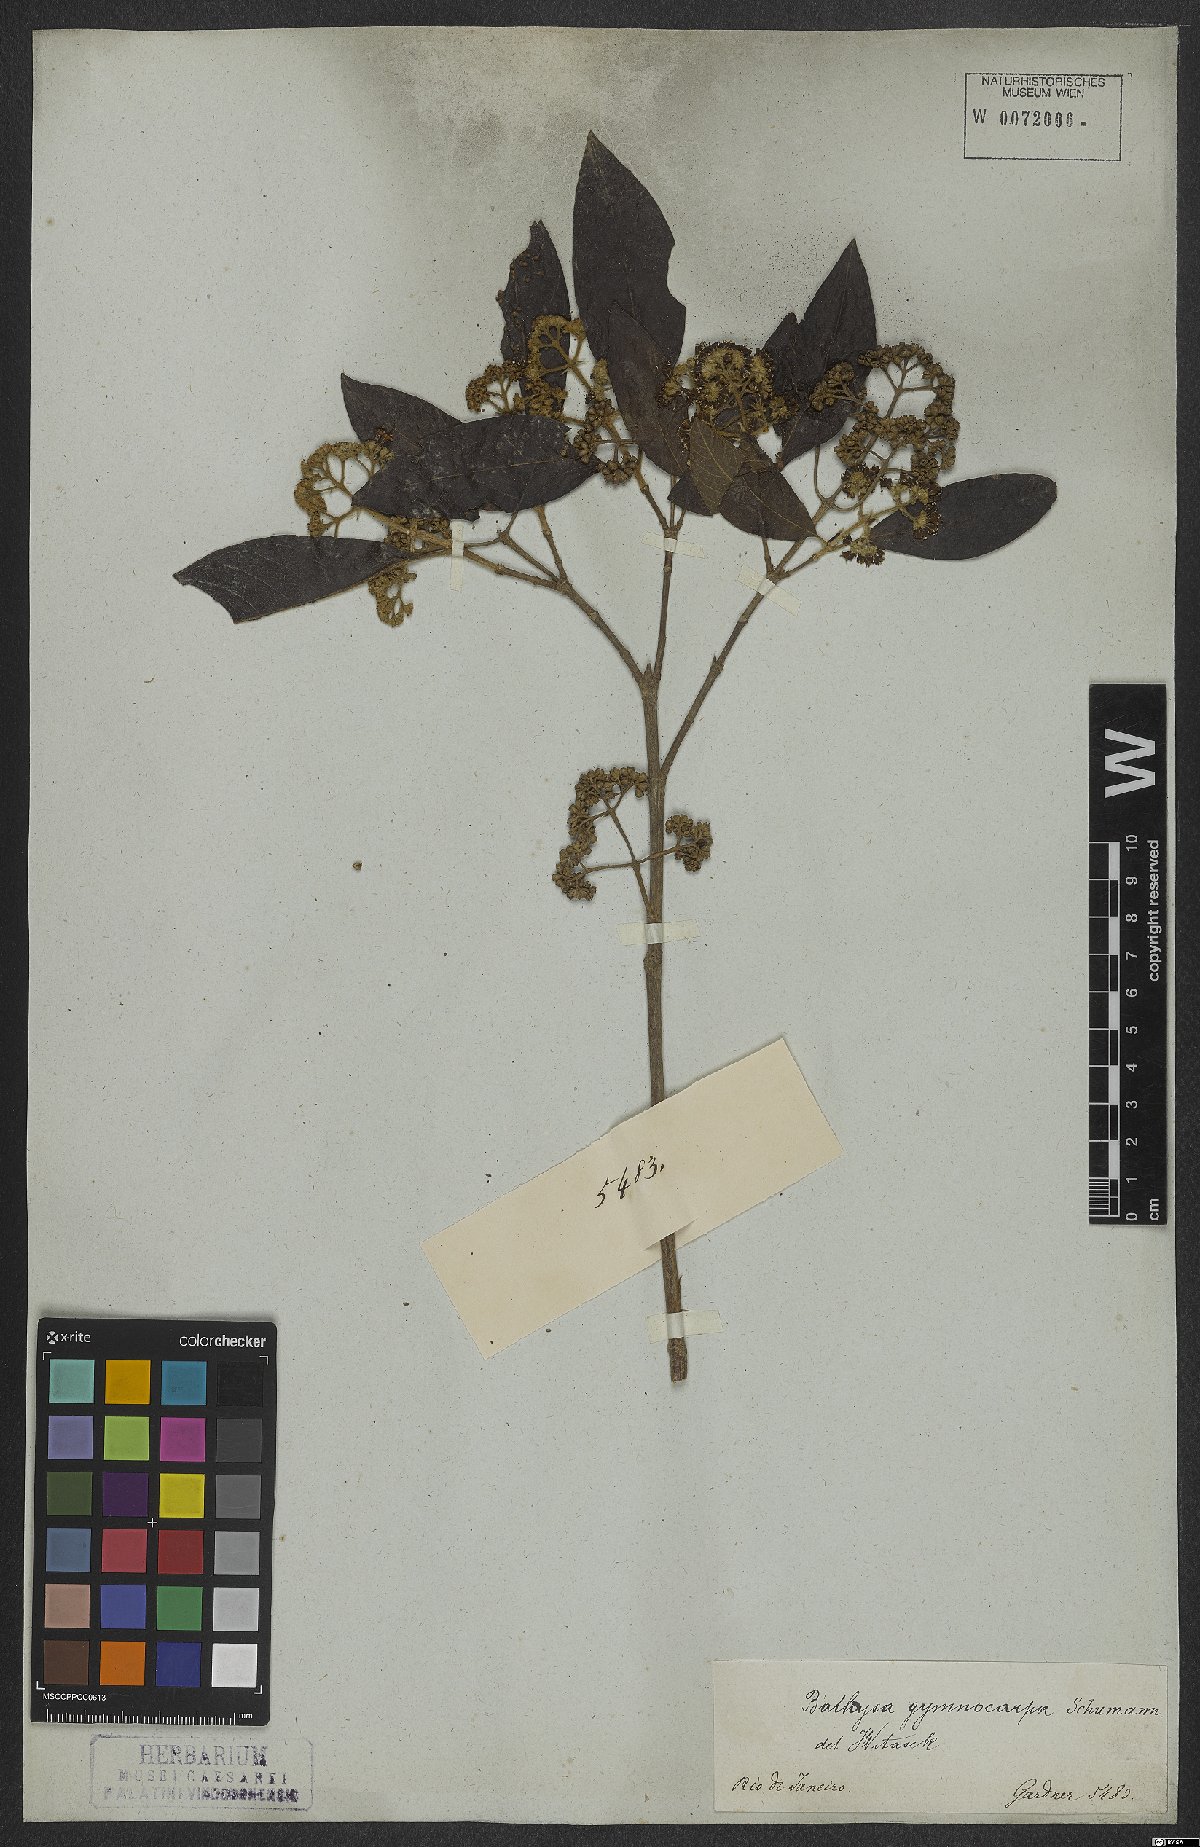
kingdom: Plantae
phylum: Tracheophyta
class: Magnoliopsida
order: Gentianales
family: Rubiaceae
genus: Bathysa
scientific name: Bathysa gymnocarpa
